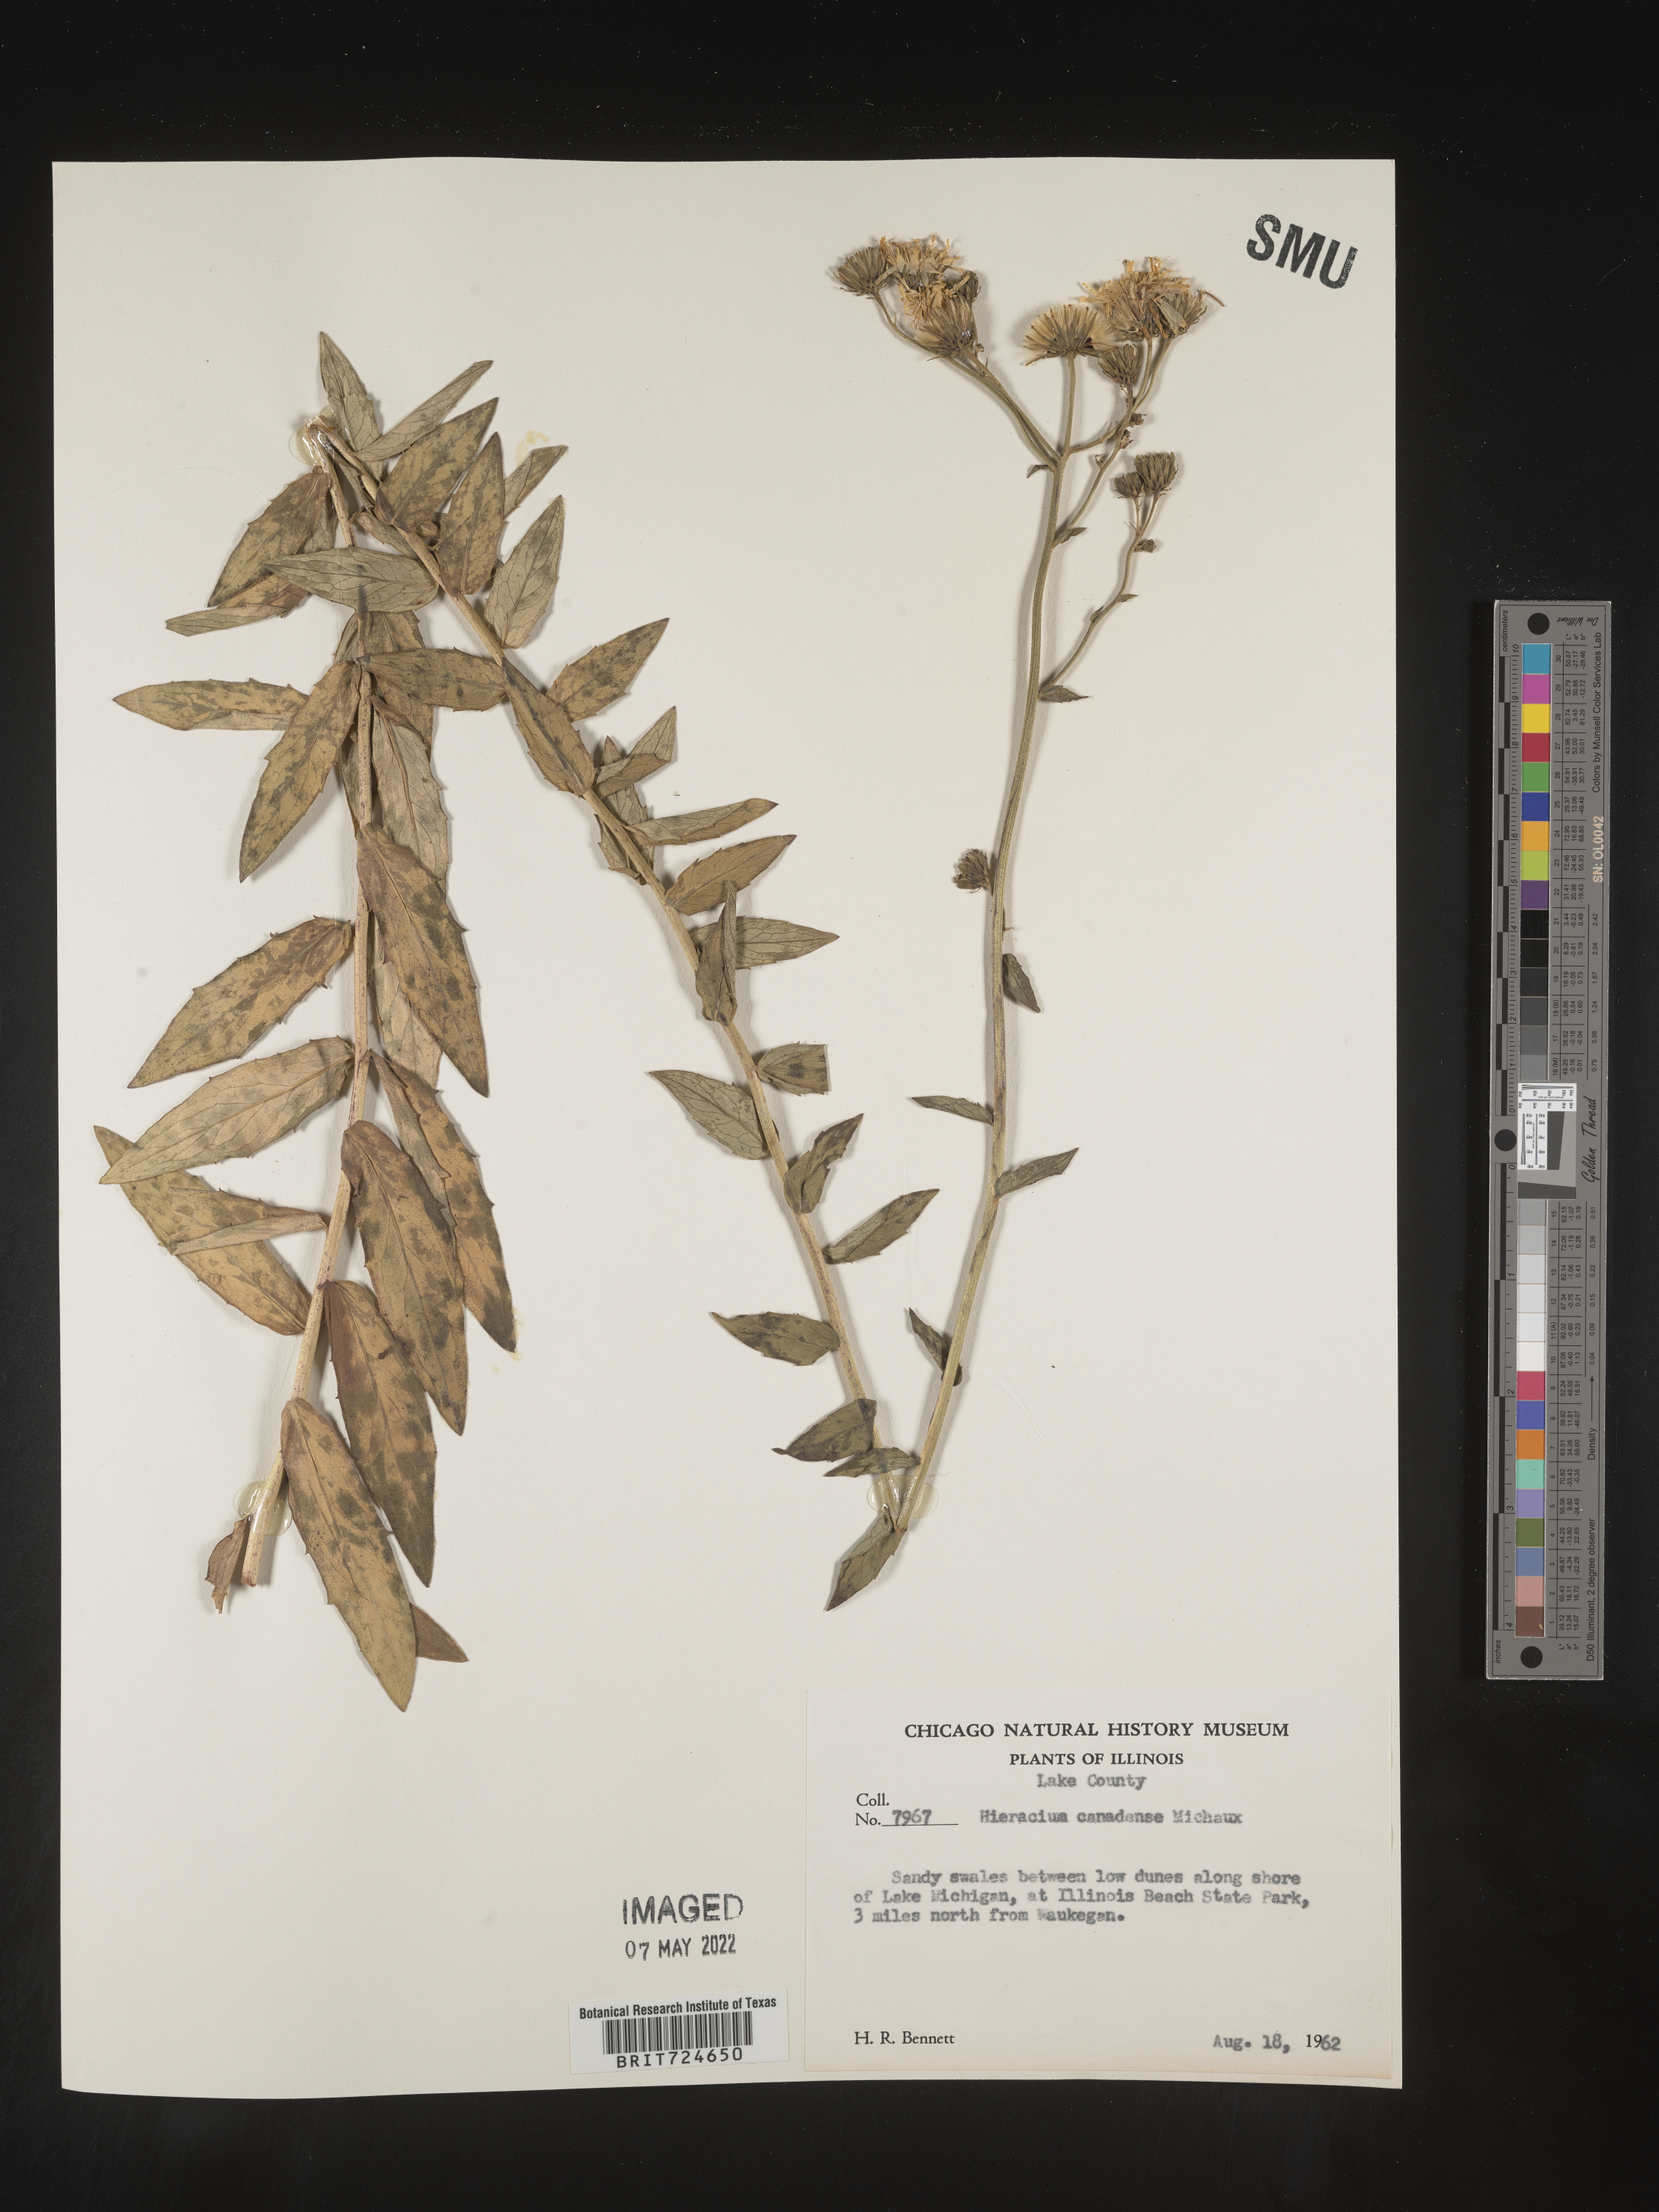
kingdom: Plantae
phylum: Tracheophyta
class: Magnoliopsida
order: Asterales
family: Asteraceae
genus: Hieracium
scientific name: Hieracium
